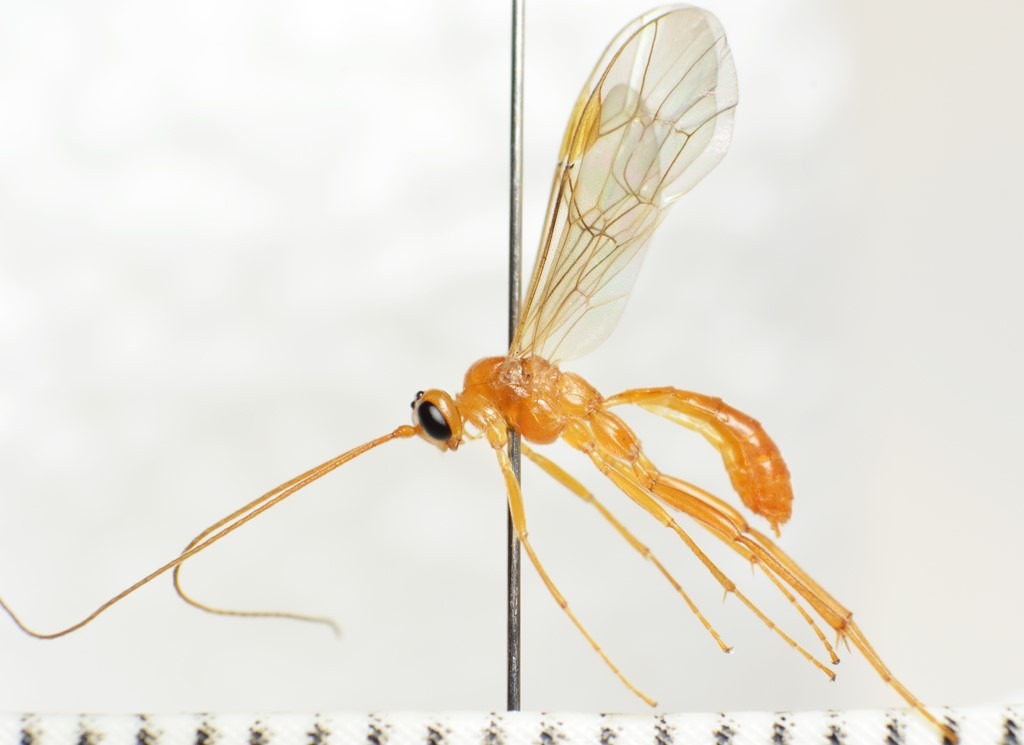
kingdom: Animalia
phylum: Arthropoda
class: Insecta
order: Hymenoptera
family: Ichneumonidae
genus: Absyrtus
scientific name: Absyrtus vernalis
